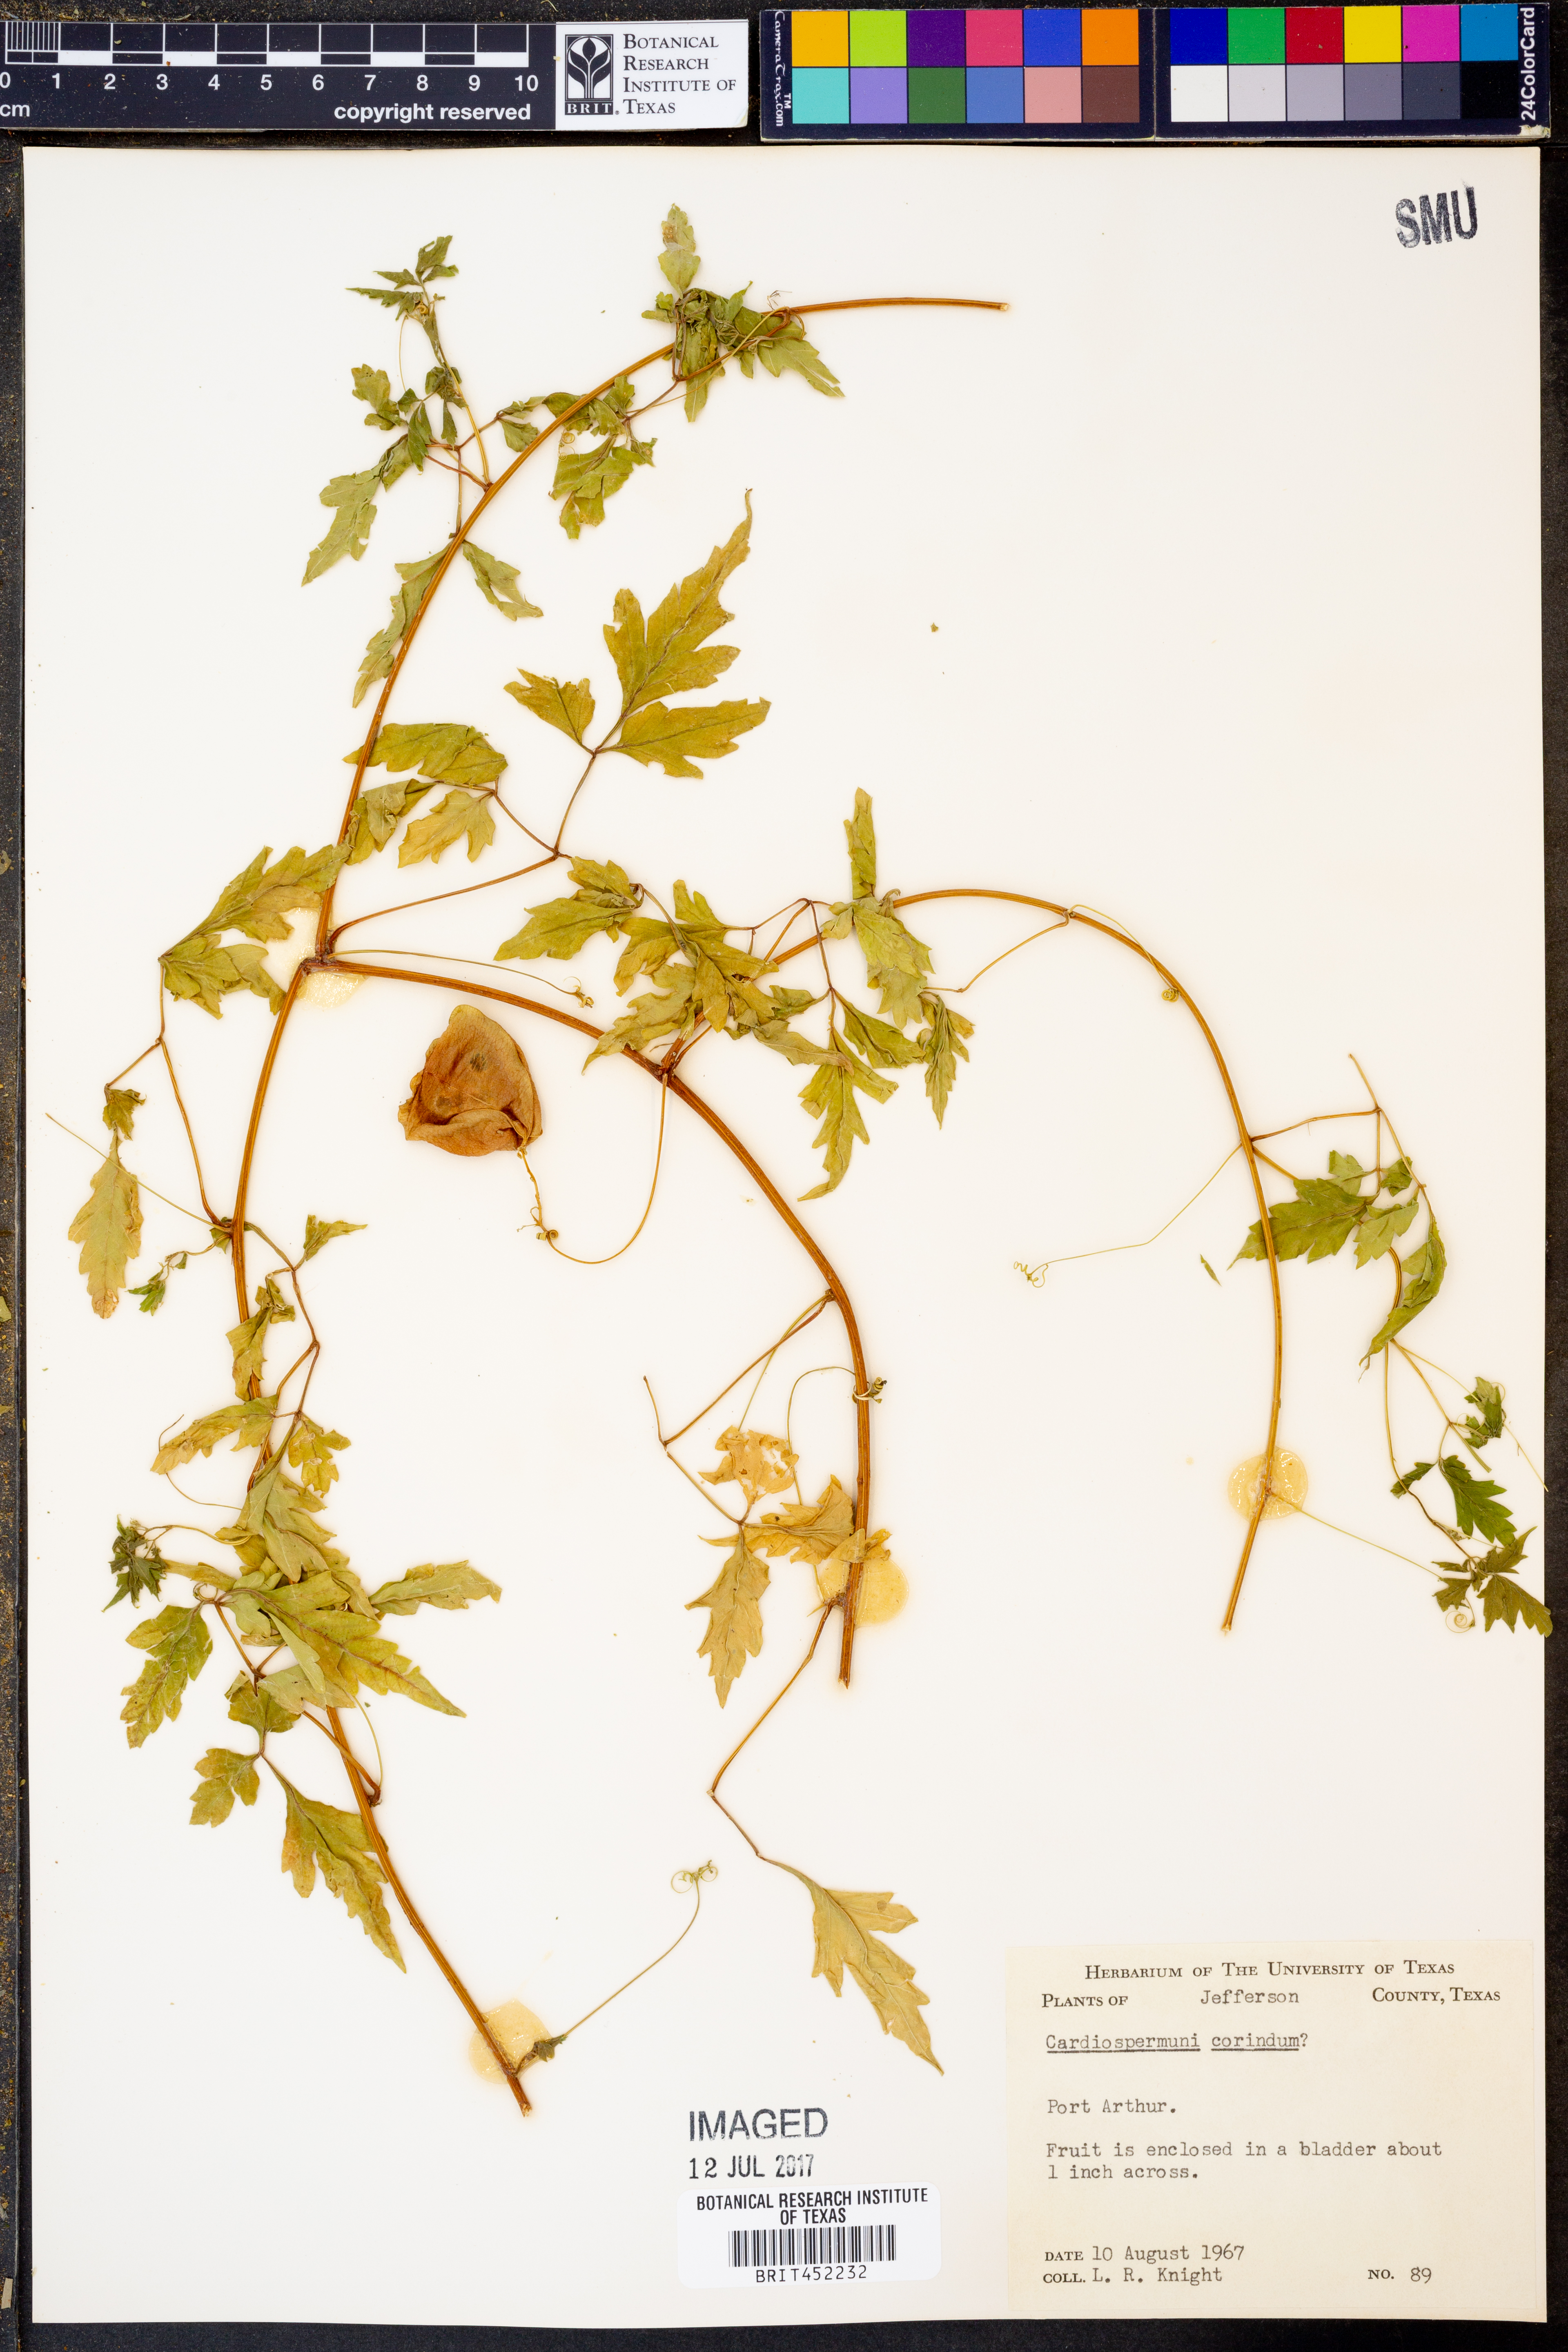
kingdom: Plantae
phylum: Tracheophyta
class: Magnoliopsida
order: Sapindales
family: Sapindaceae
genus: Cardiospermum
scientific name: Cardiospermum corindum
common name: Faux persil
